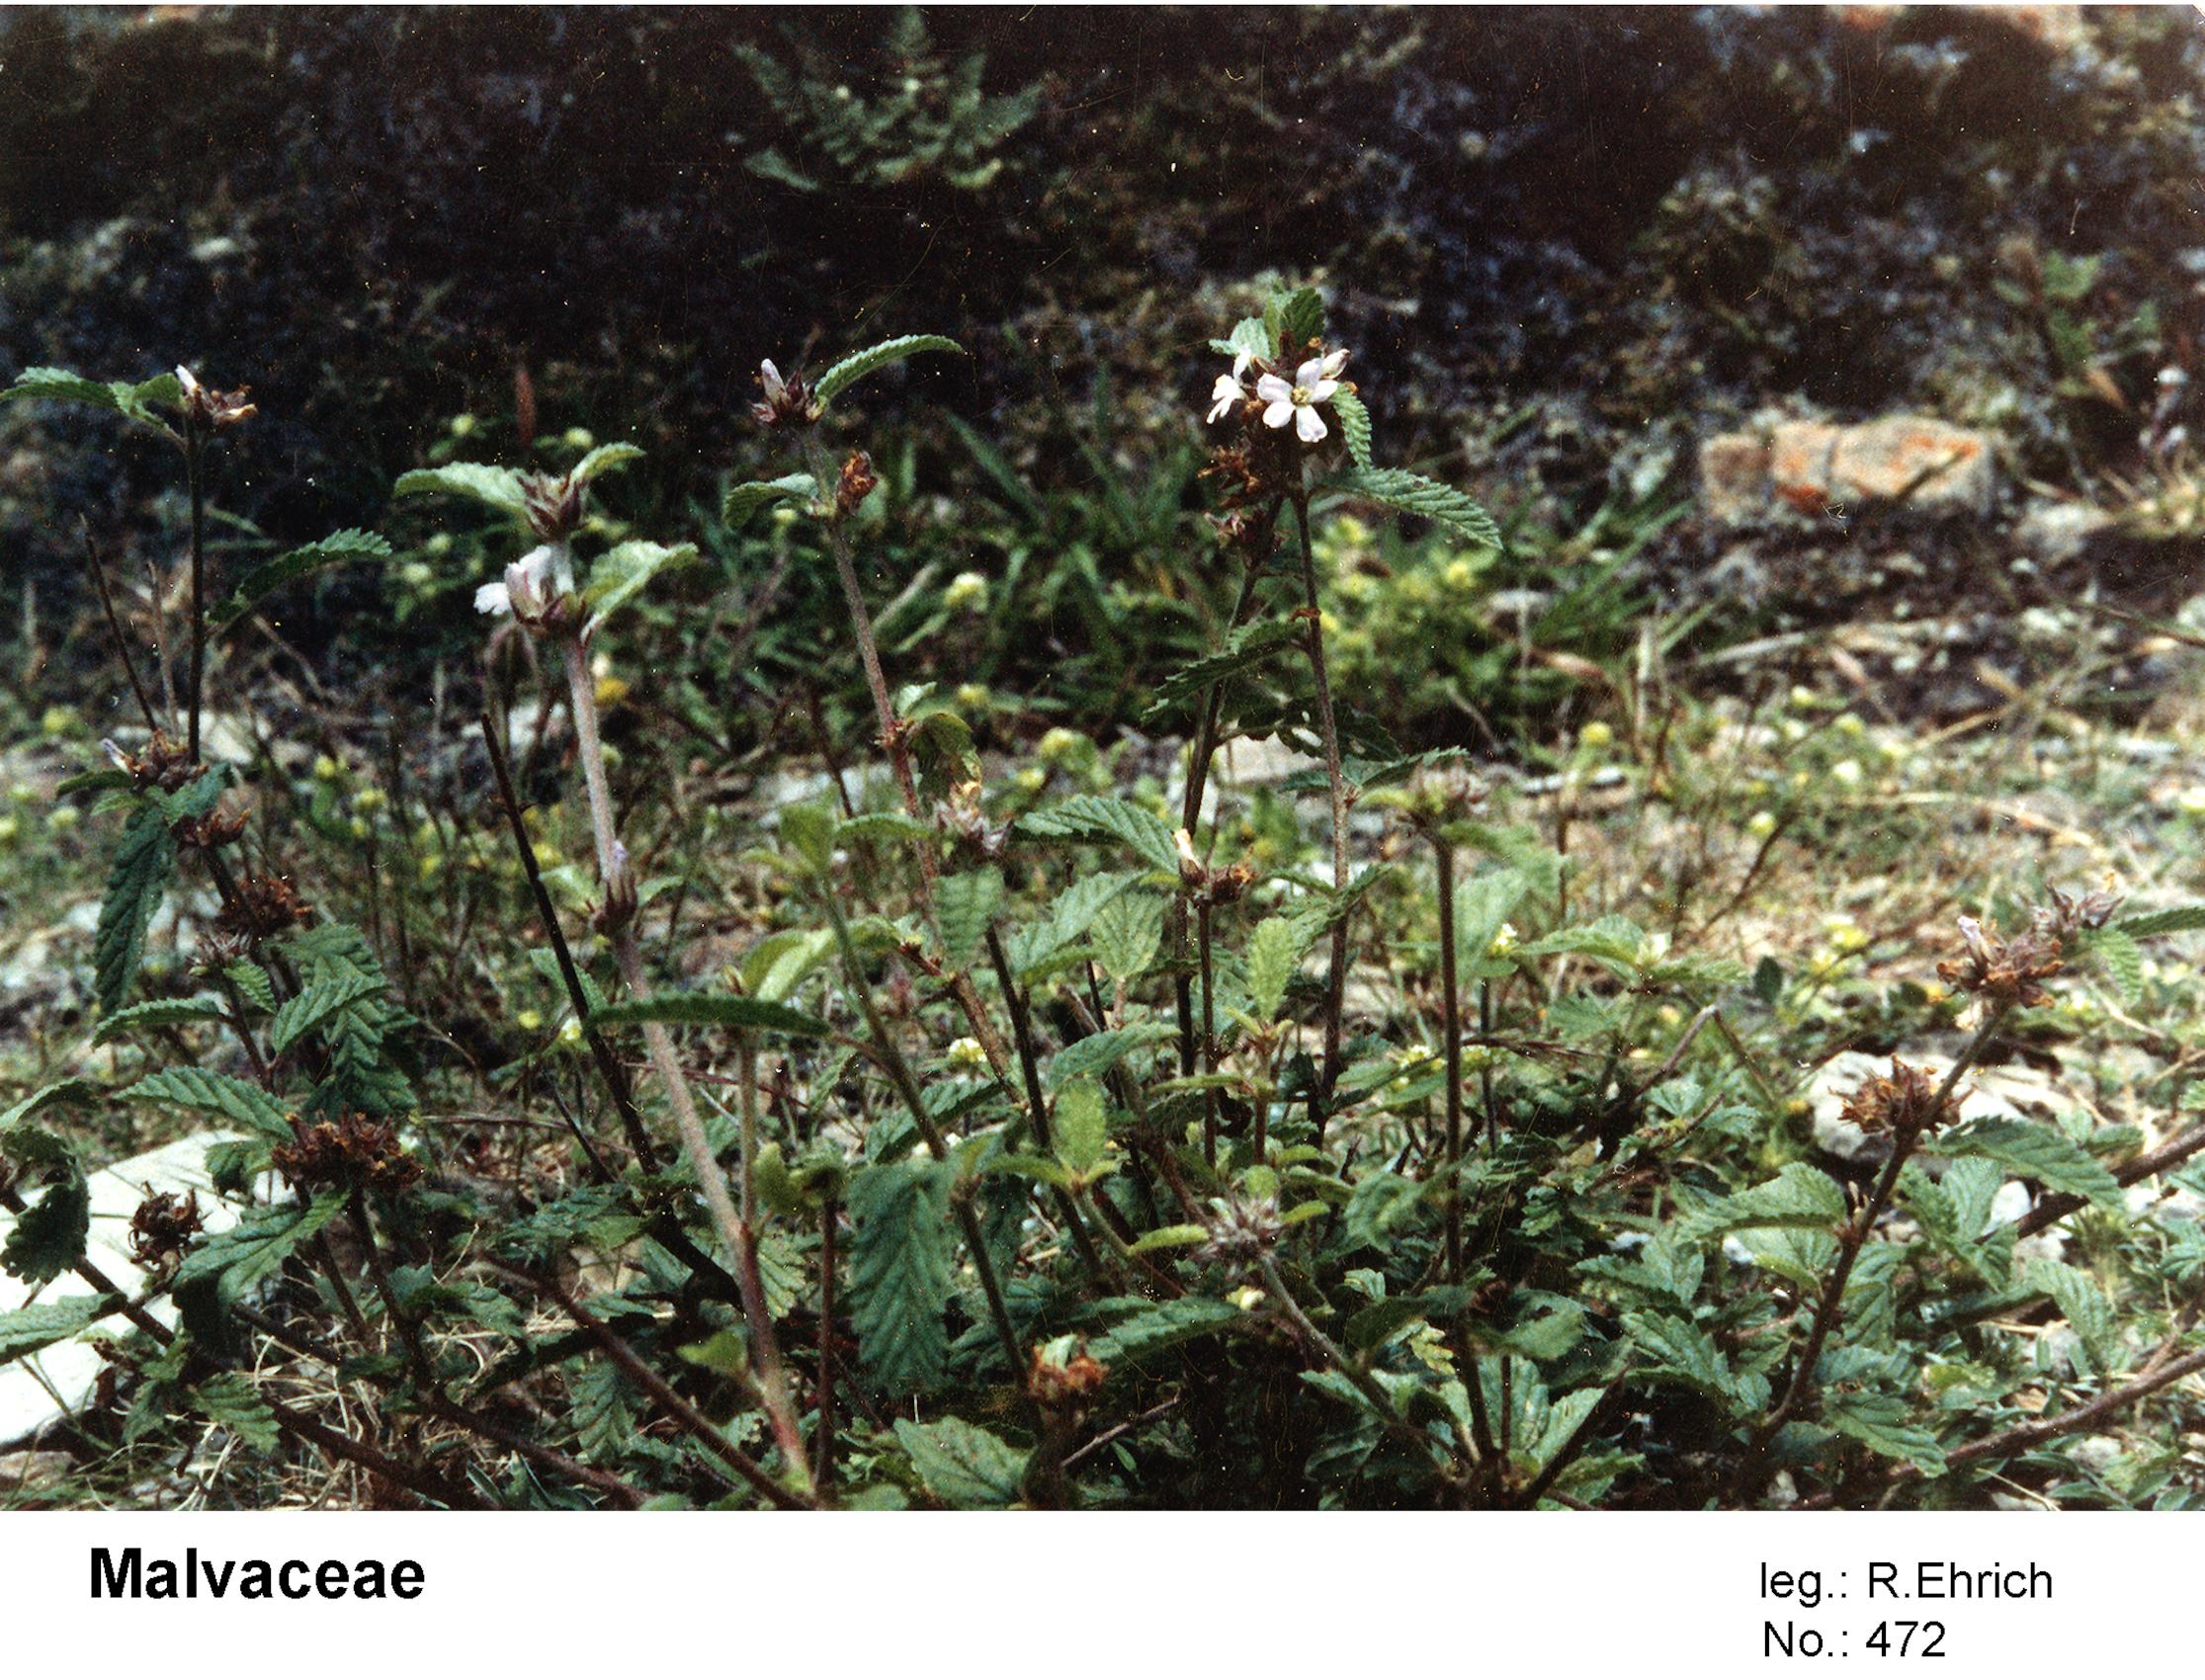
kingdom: Plantae
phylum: Tracheophyta
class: Magnoliopsida
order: Malvales
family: Malvaceae
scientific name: Malvaceae
